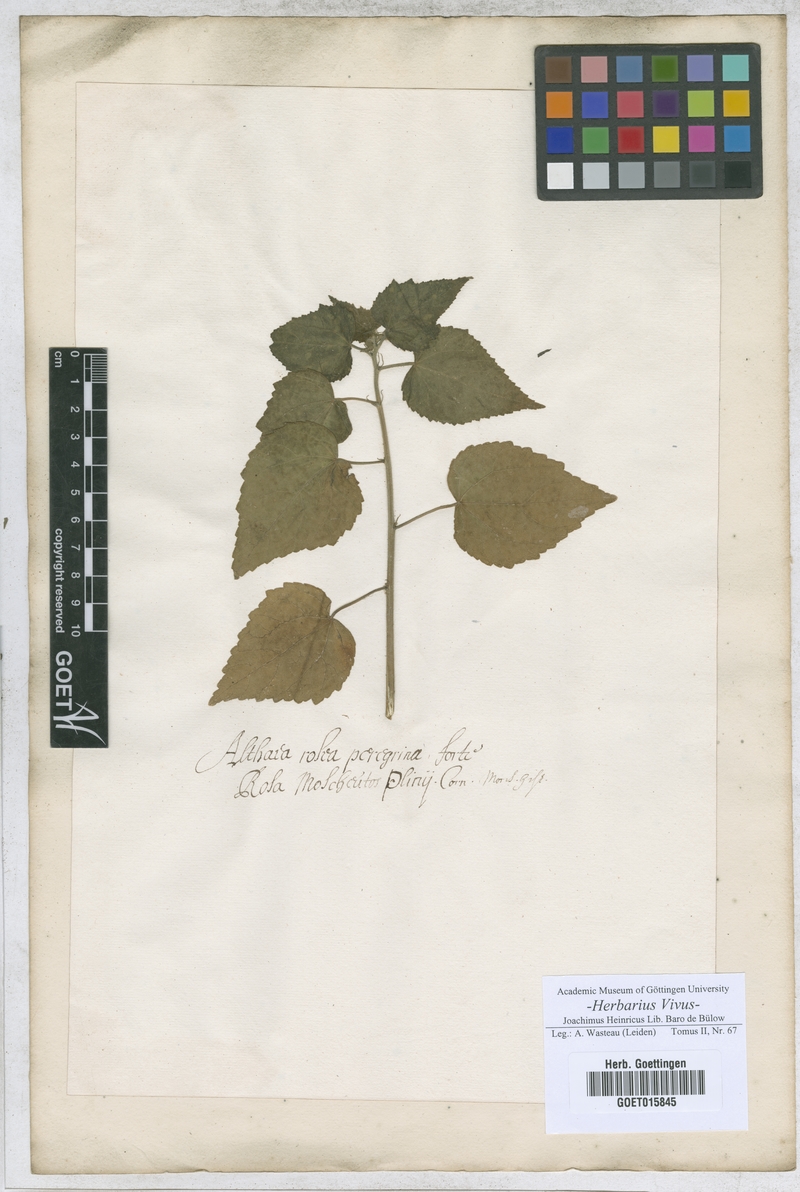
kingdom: Plantae
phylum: Tracheophyta
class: Magnoliopsida
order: Malvales
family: Malvaceae
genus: Althaea
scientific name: Althaea
